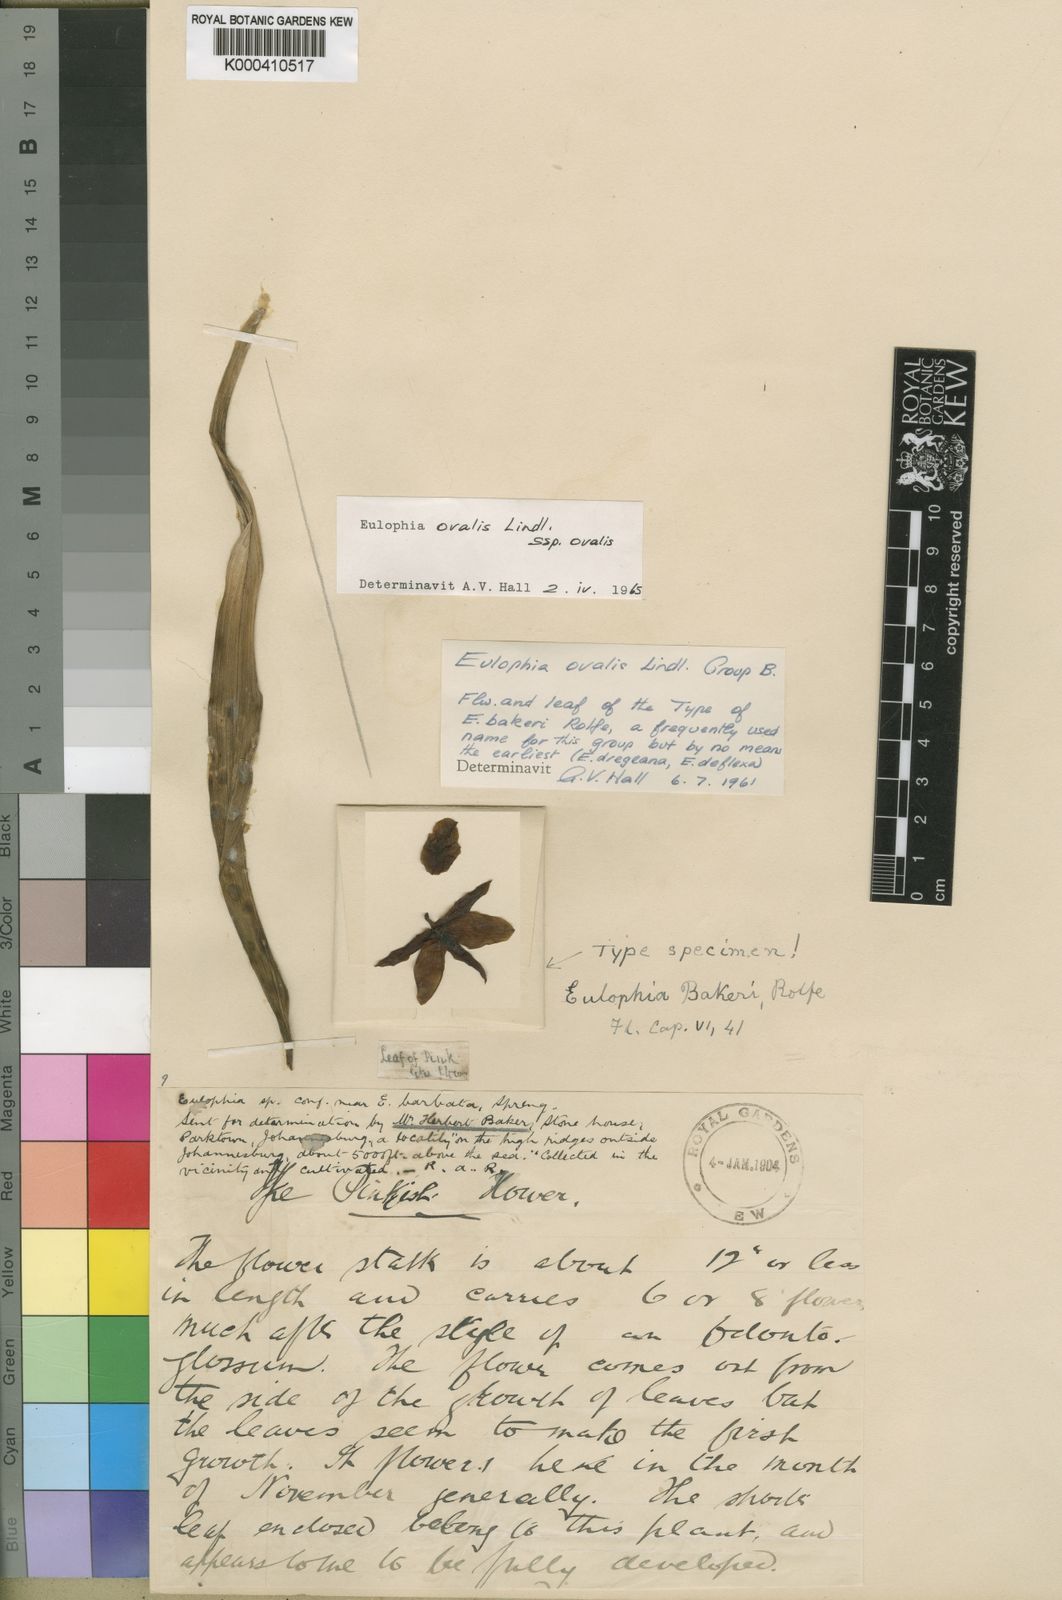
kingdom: Plantae
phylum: Tracheophyta
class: Liliopsida
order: Asparagales
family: Orchidaceae
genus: Eulophia
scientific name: Eulophia ovalis
